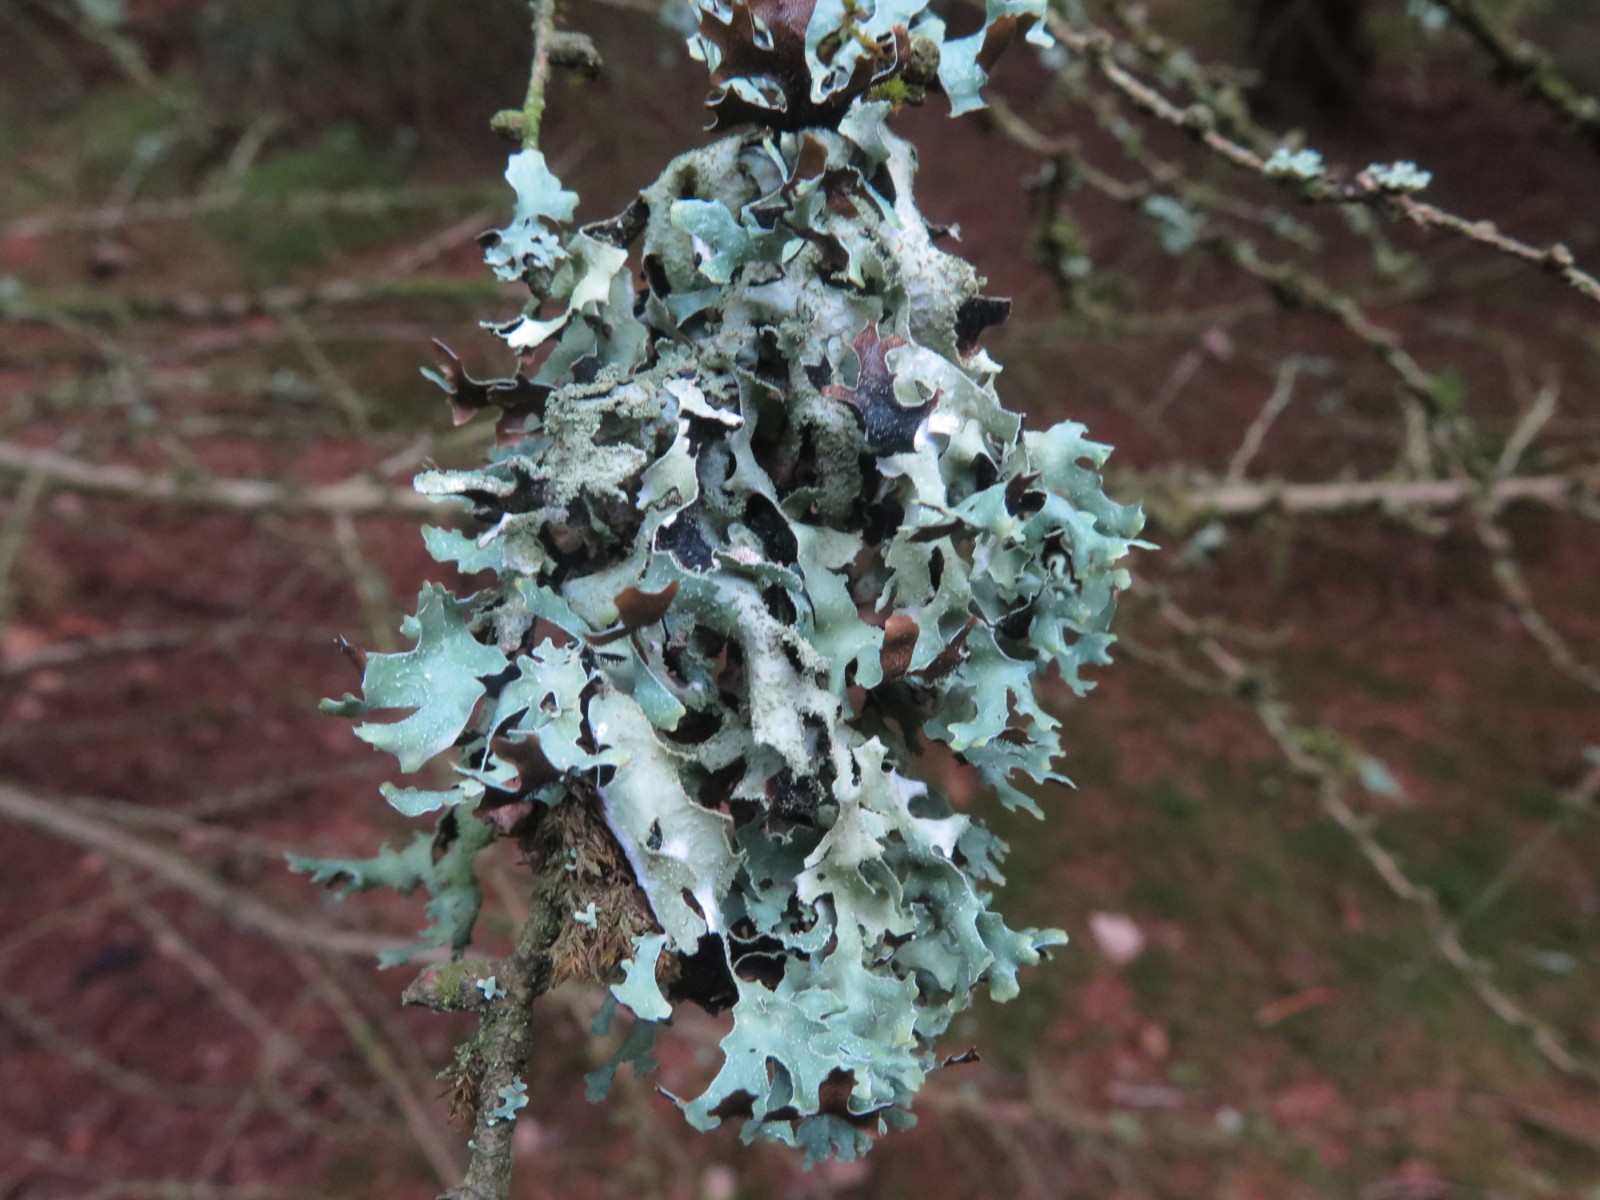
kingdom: Fungi
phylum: Ascomycota
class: Lecanoromycetes
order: Lecanorales
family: Parmeliaceae
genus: Parmelia
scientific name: Parmelia submontana
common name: langlobet skållav
